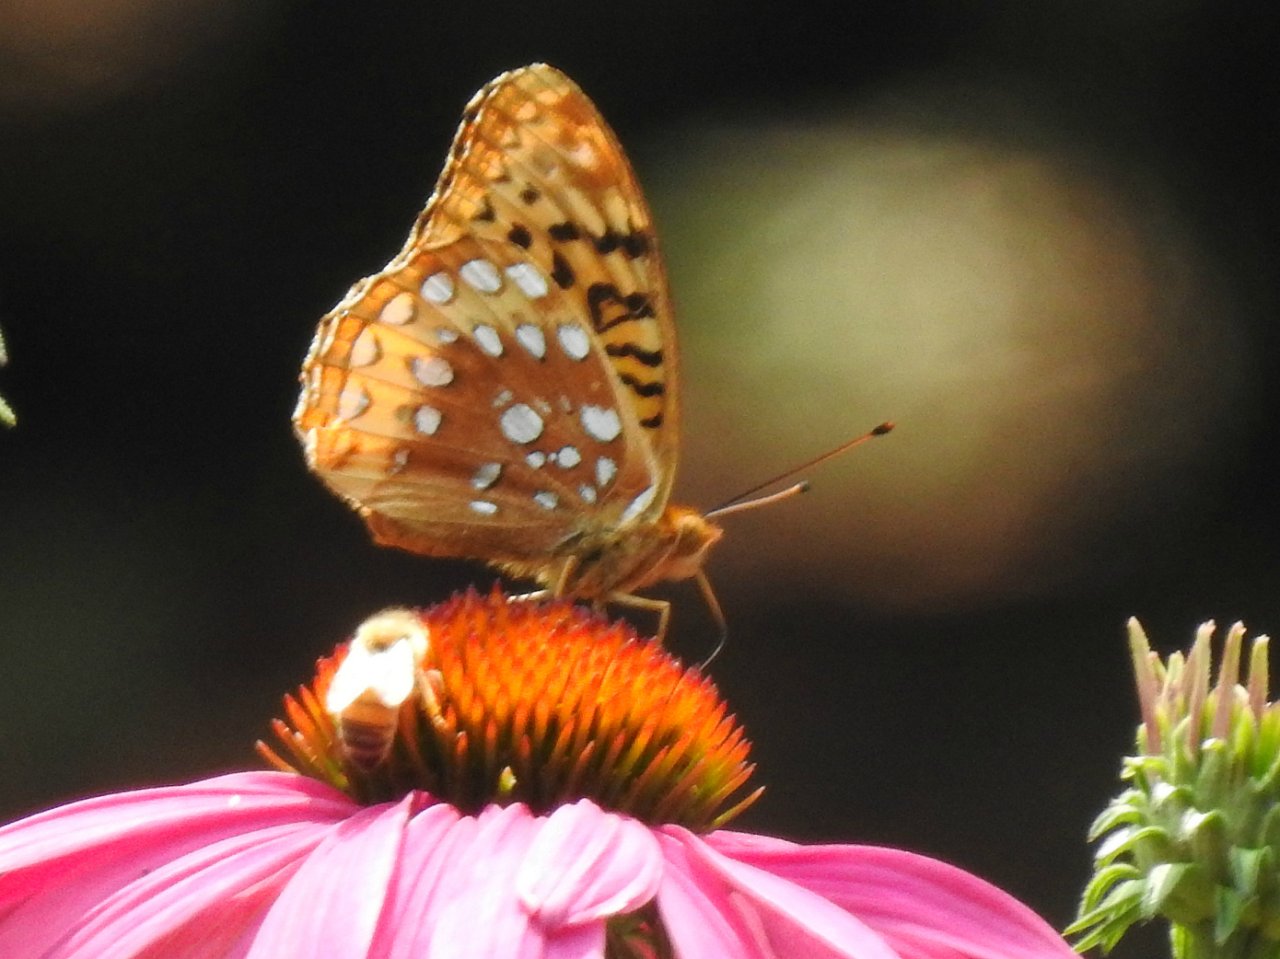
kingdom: Animalia
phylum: Arthropoda
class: Insecta
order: Lepidoptera
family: Nymphalidae
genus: Speyeria
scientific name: Speyeria cybele
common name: Great Spangled Fritillary
